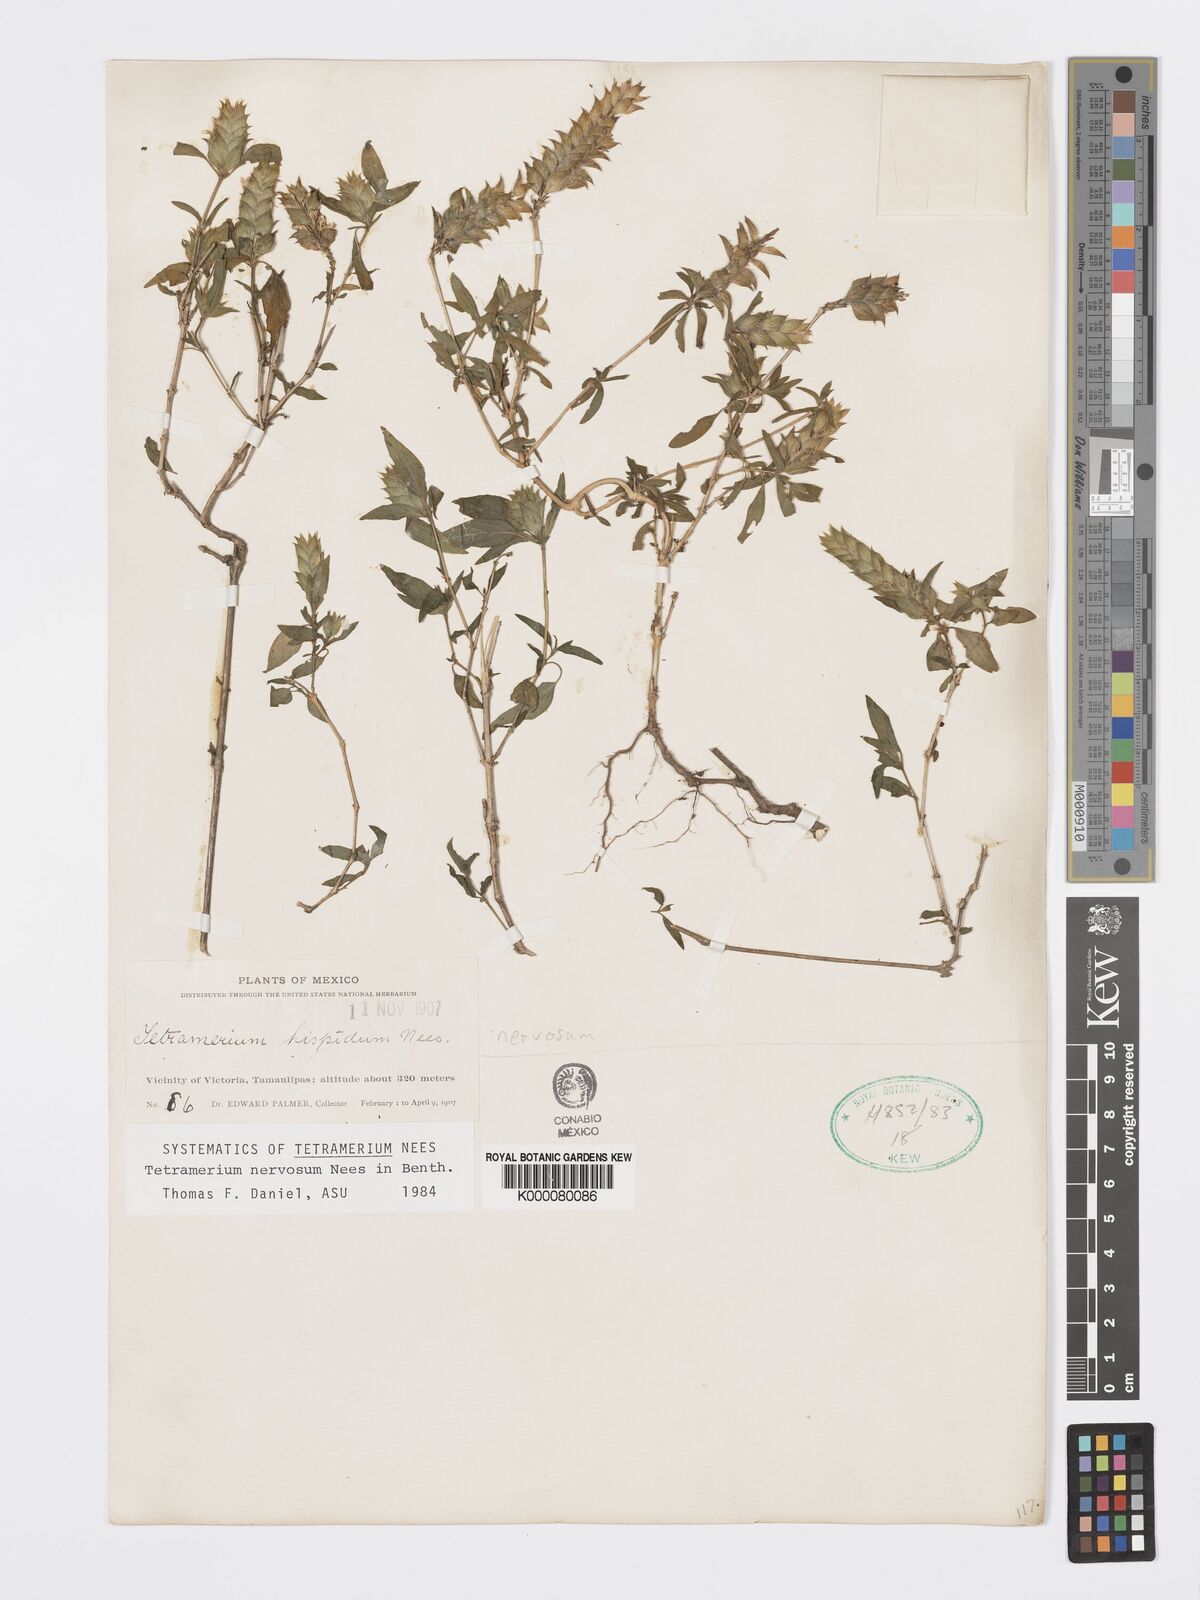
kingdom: Plantae
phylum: Tracheophyta
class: Magnoliopsida
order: Lamiales
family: Acanthaceae
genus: Tetramerium
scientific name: Tetramerium nervosum
